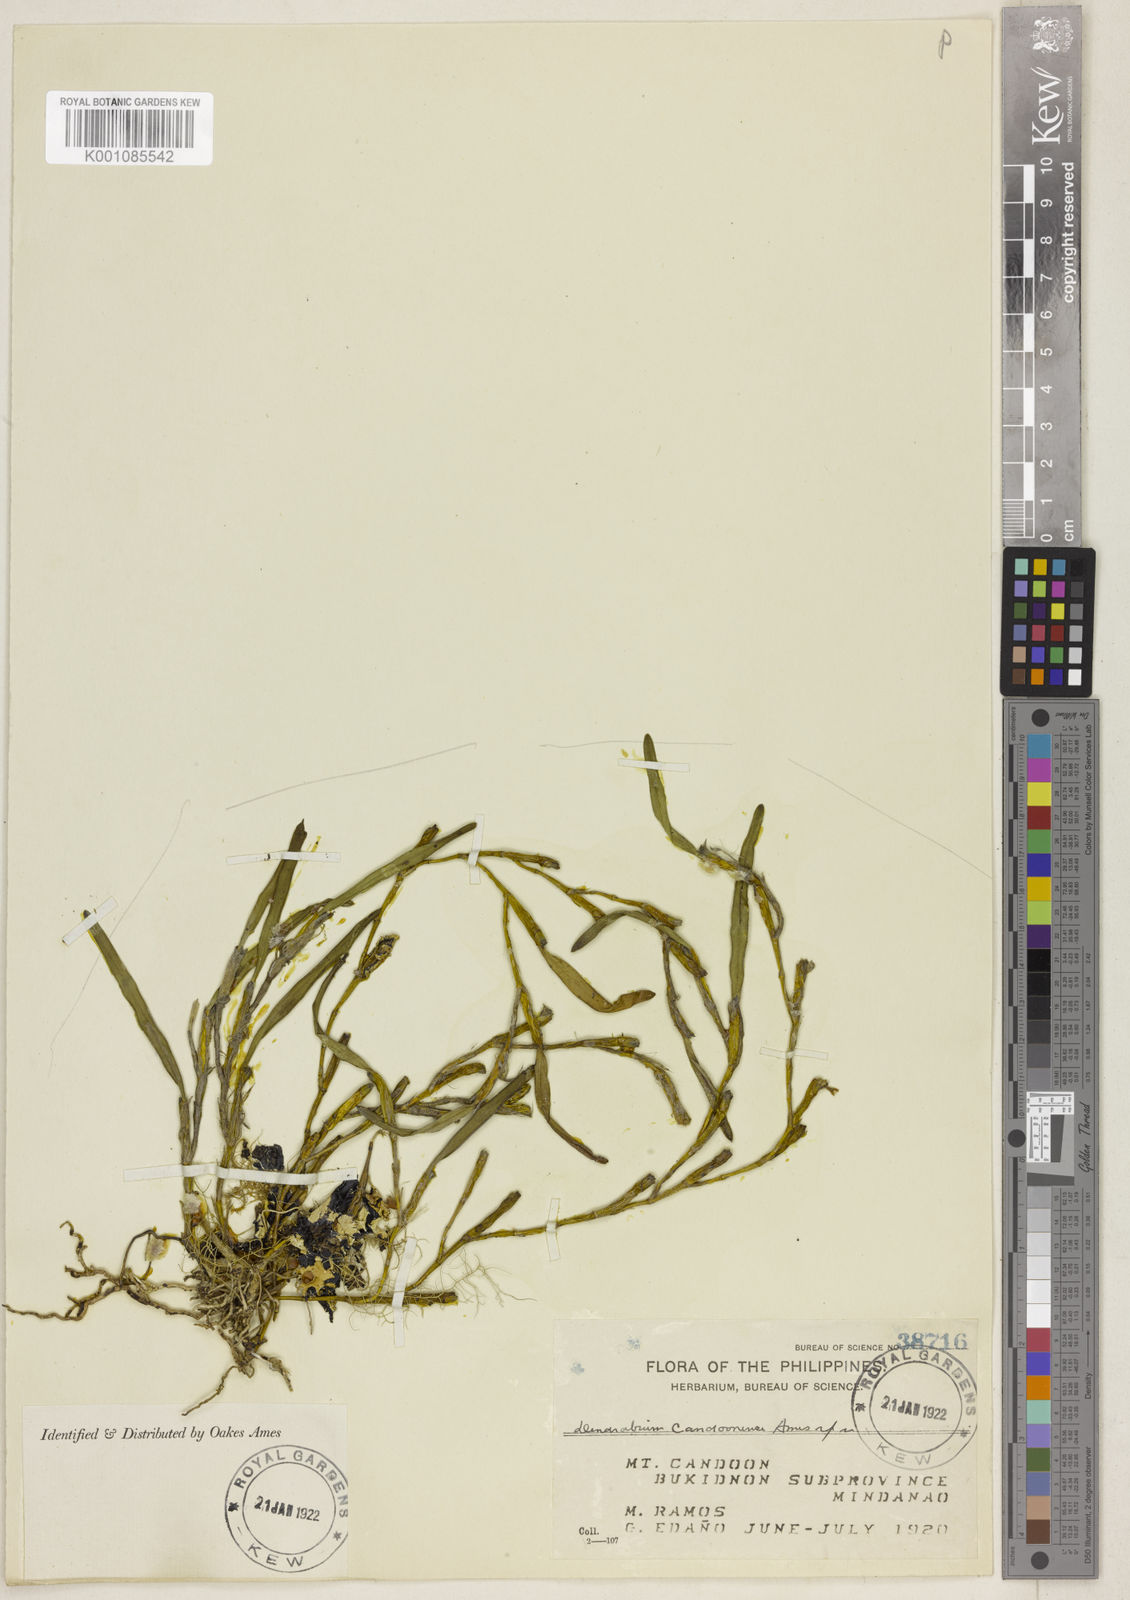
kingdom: Plantae
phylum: Tracheophyta
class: Liliopsida
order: Asparagales
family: Orchidaceae
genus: Dendrobium
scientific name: Dendrobium
